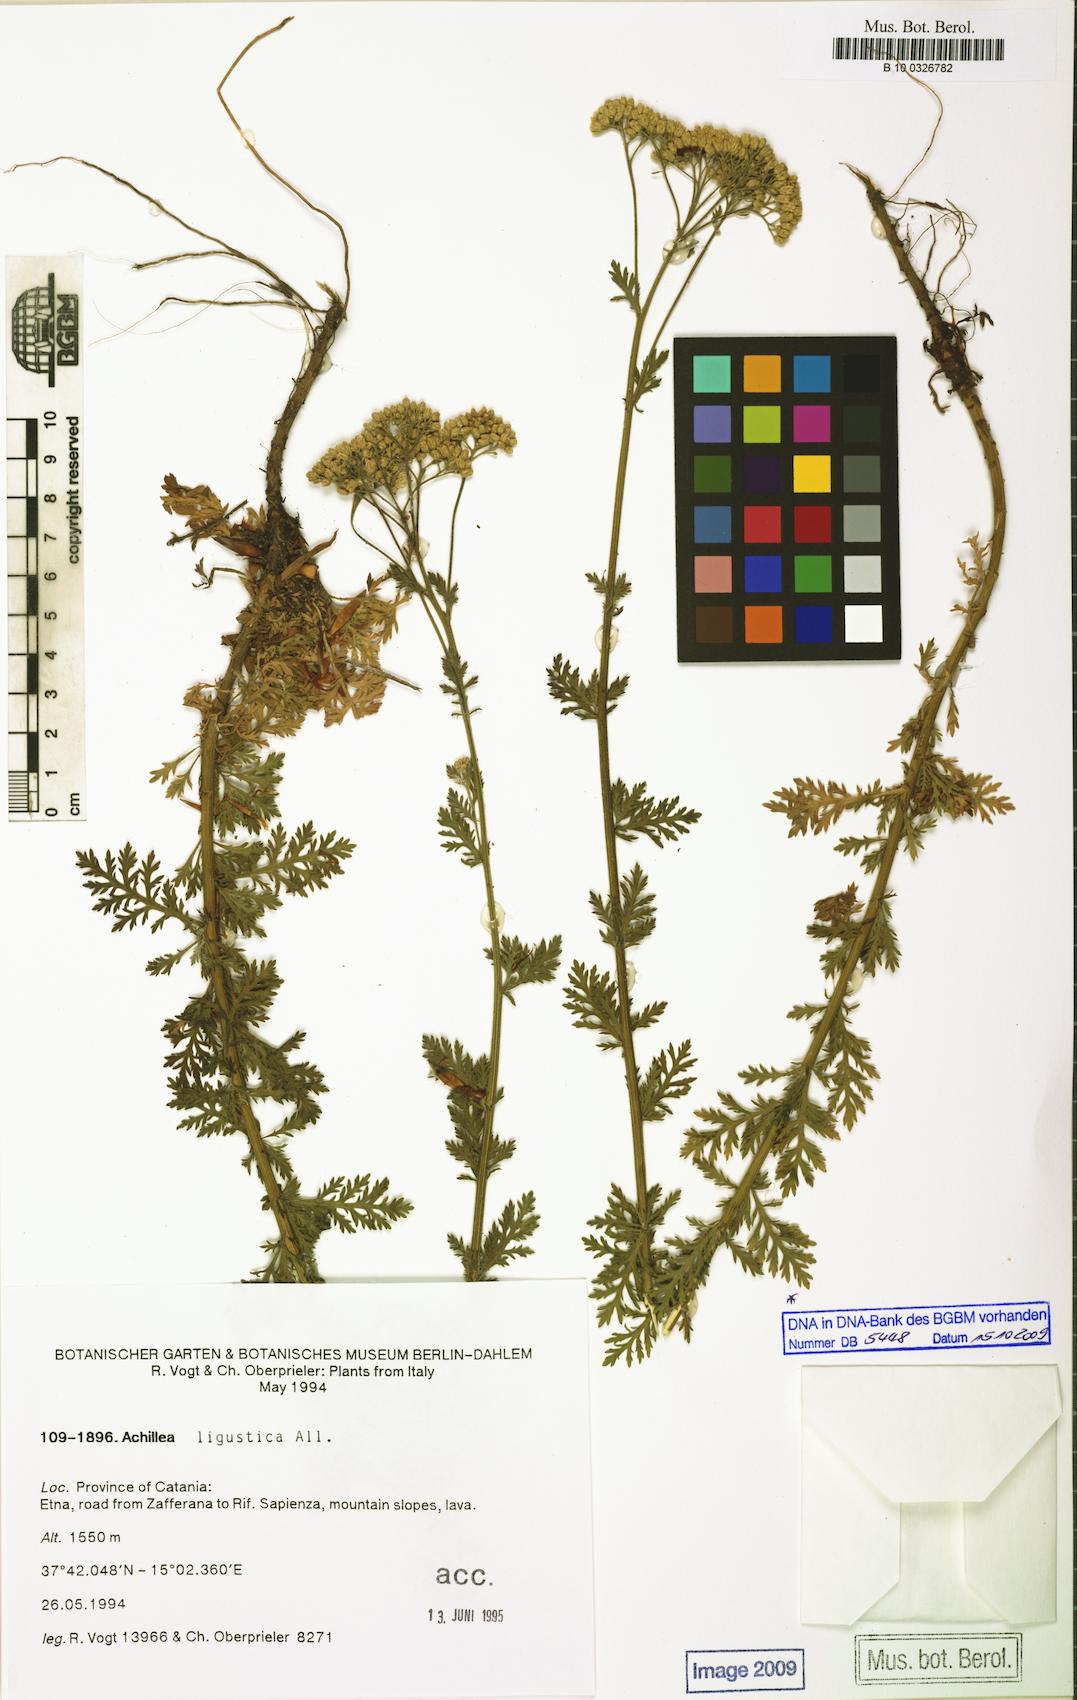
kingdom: Plantae
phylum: Tracheophyta
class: Magnoliopsida
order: Asterales
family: Asteraceae
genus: Achillea
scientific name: Achillea ligustica
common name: Southern yarrow
